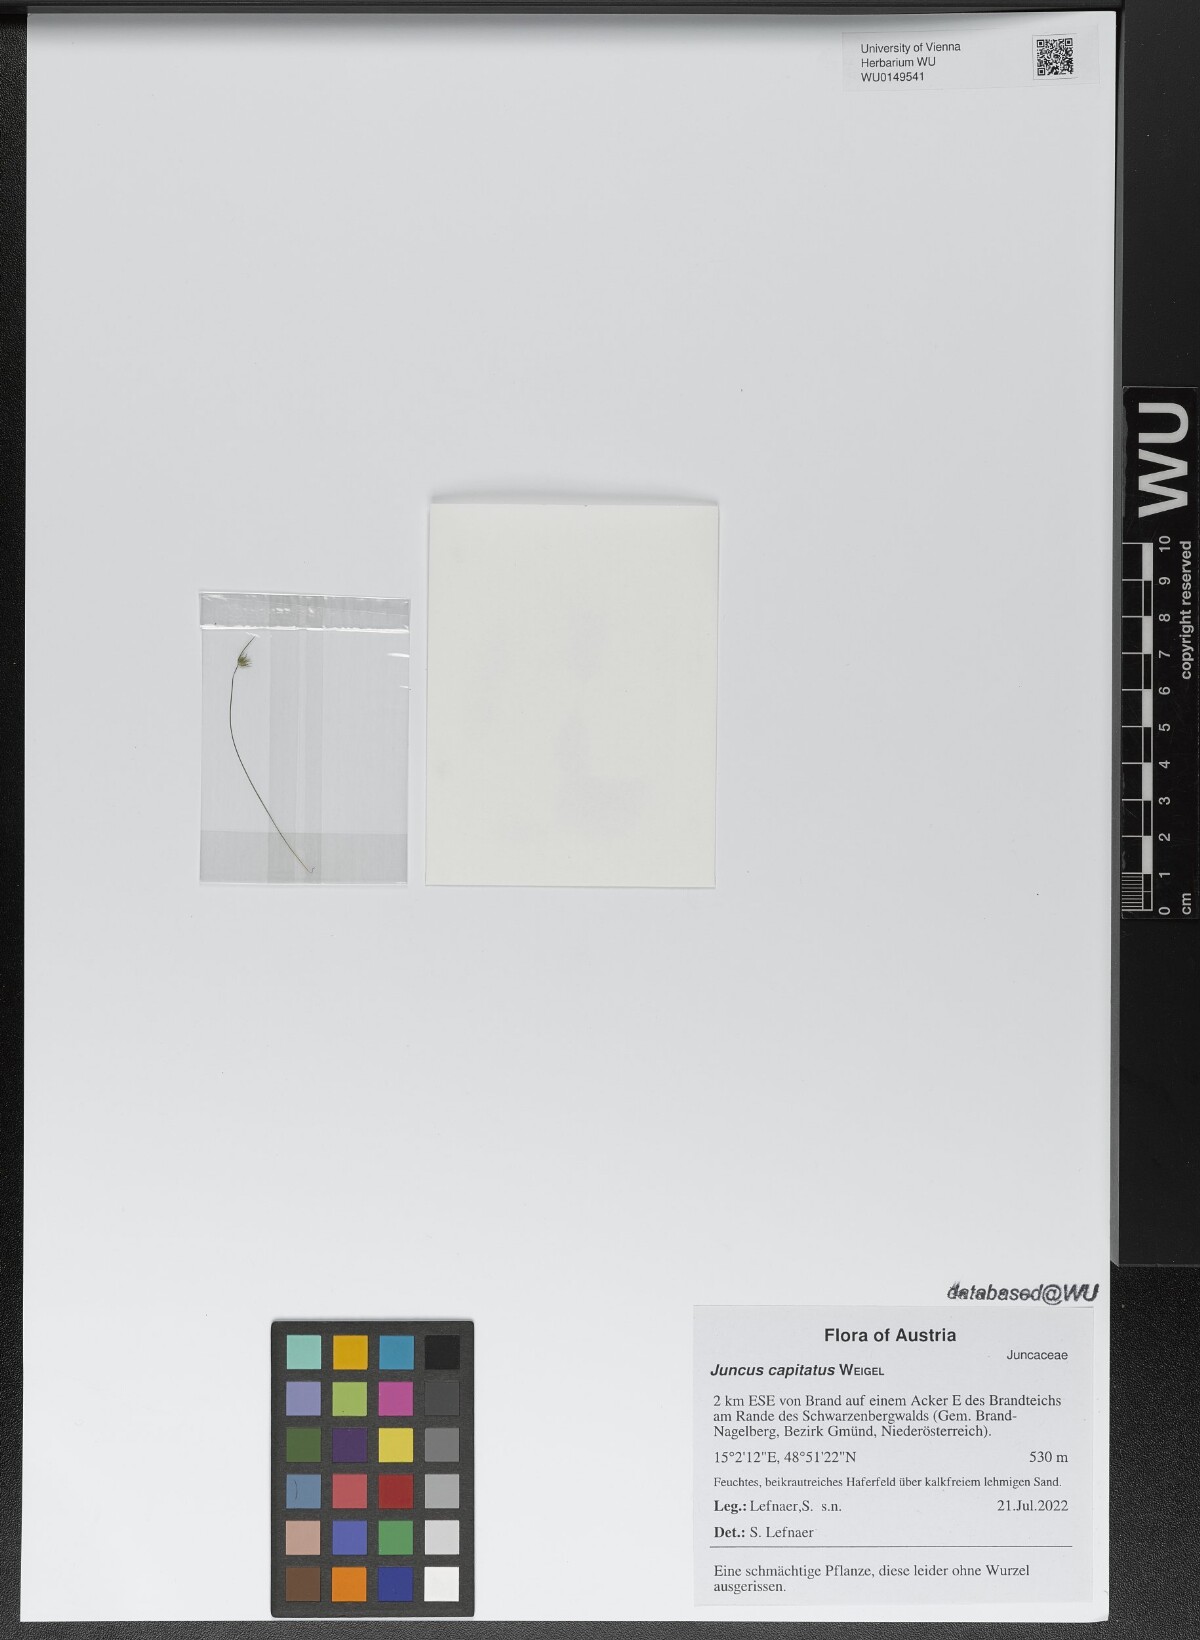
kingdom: Plantae
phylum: Tracheophyta
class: Liliopsida
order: Poales
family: Juncaceae
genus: Juncus
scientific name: Juncus capitatus
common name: Dwarf rush
